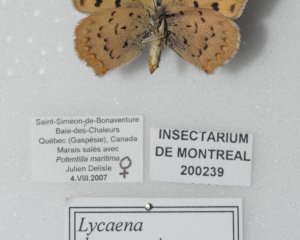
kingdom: Animalia
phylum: Arthropoda
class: Insecta
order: Lepidoptera
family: Lycaenidae
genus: Epidemia
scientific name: Epidemia dorcas
